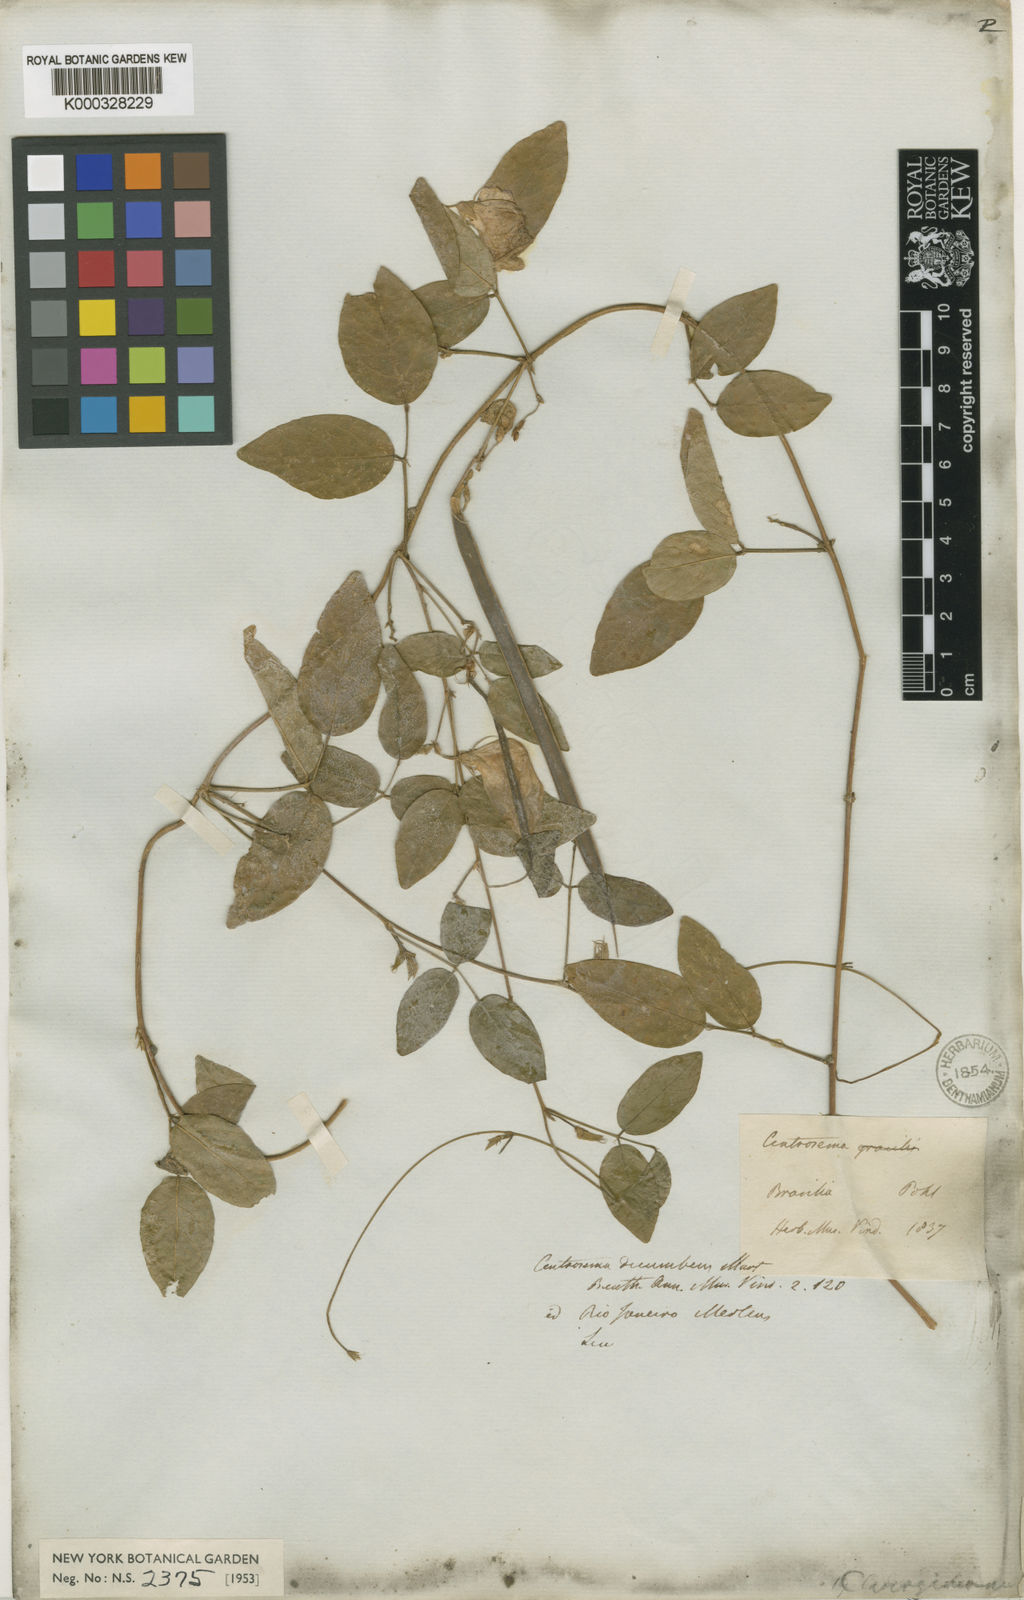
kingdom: Plantae
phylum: Tracheophyta
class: Magnoliopsida
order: Fabales
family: Fabaceae
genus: Centrosema
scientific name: Centrosema angustifolium
